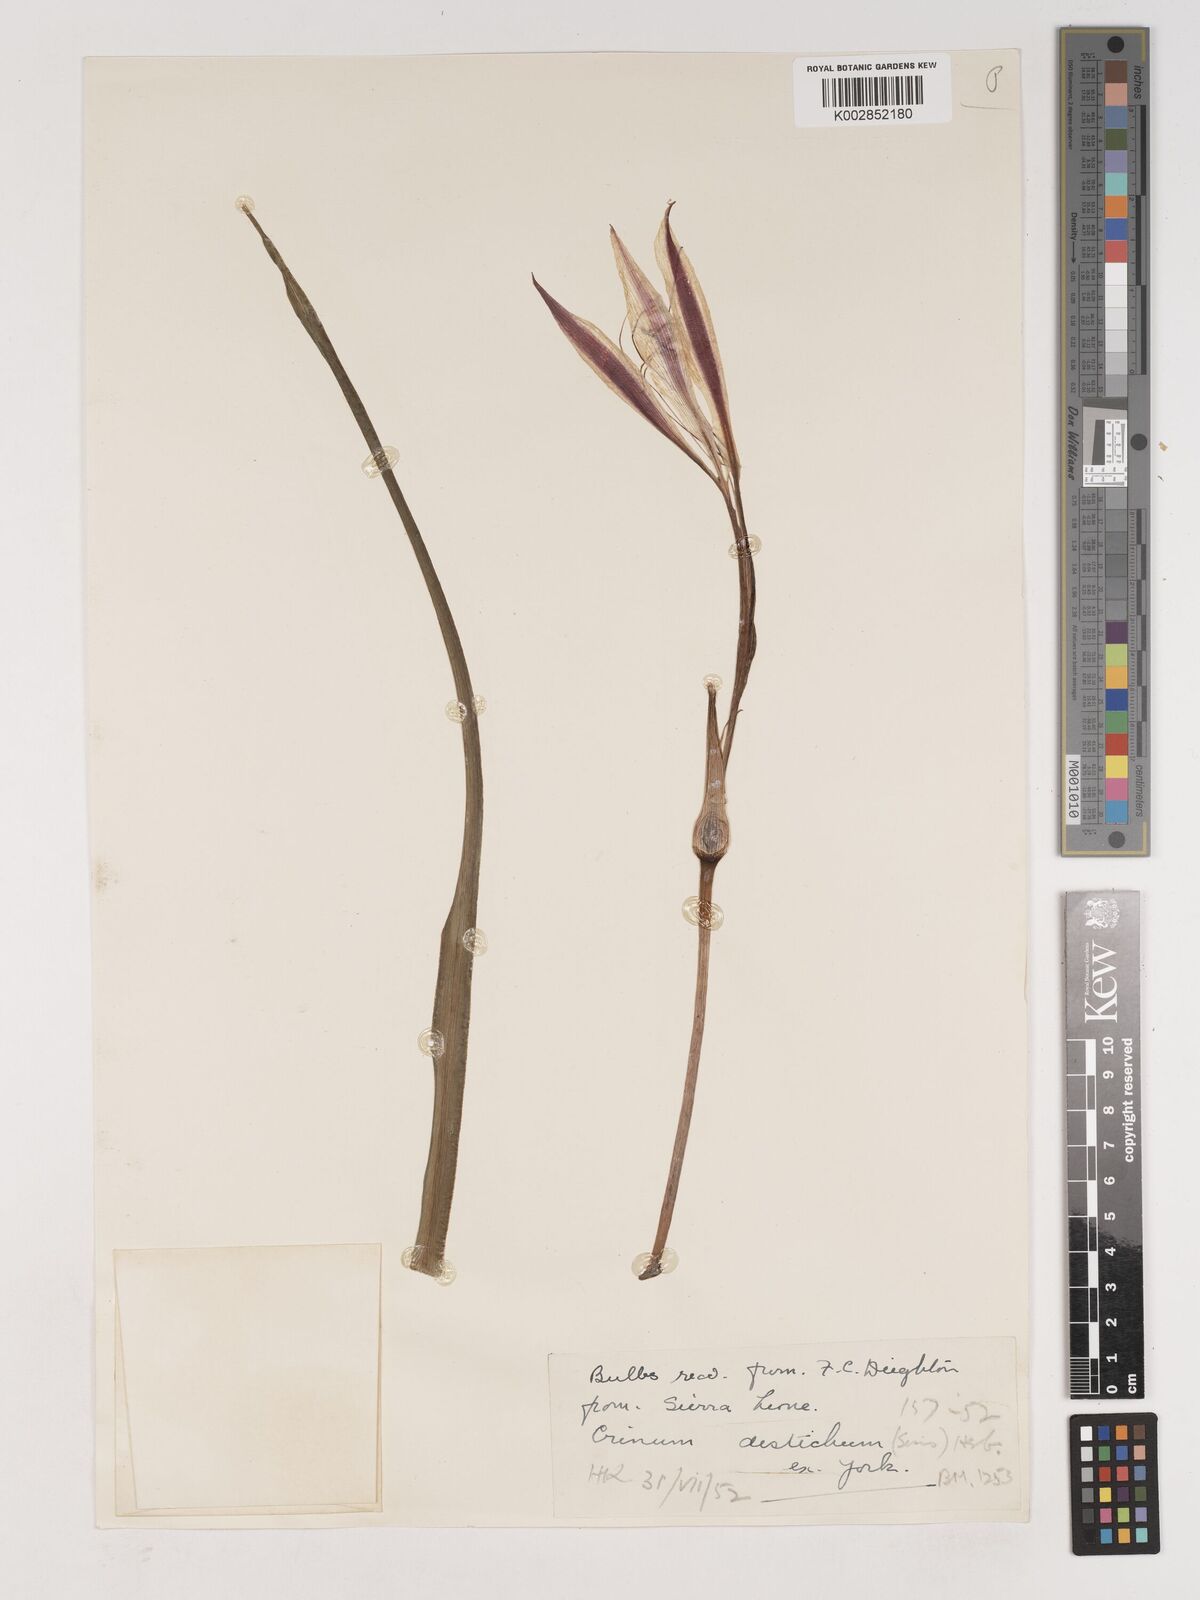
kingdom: Plantae
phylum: Tracheophyta
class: Liliopsida
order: Asparagales
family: Amaryllidaceae
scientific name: Amaryllidaceae
